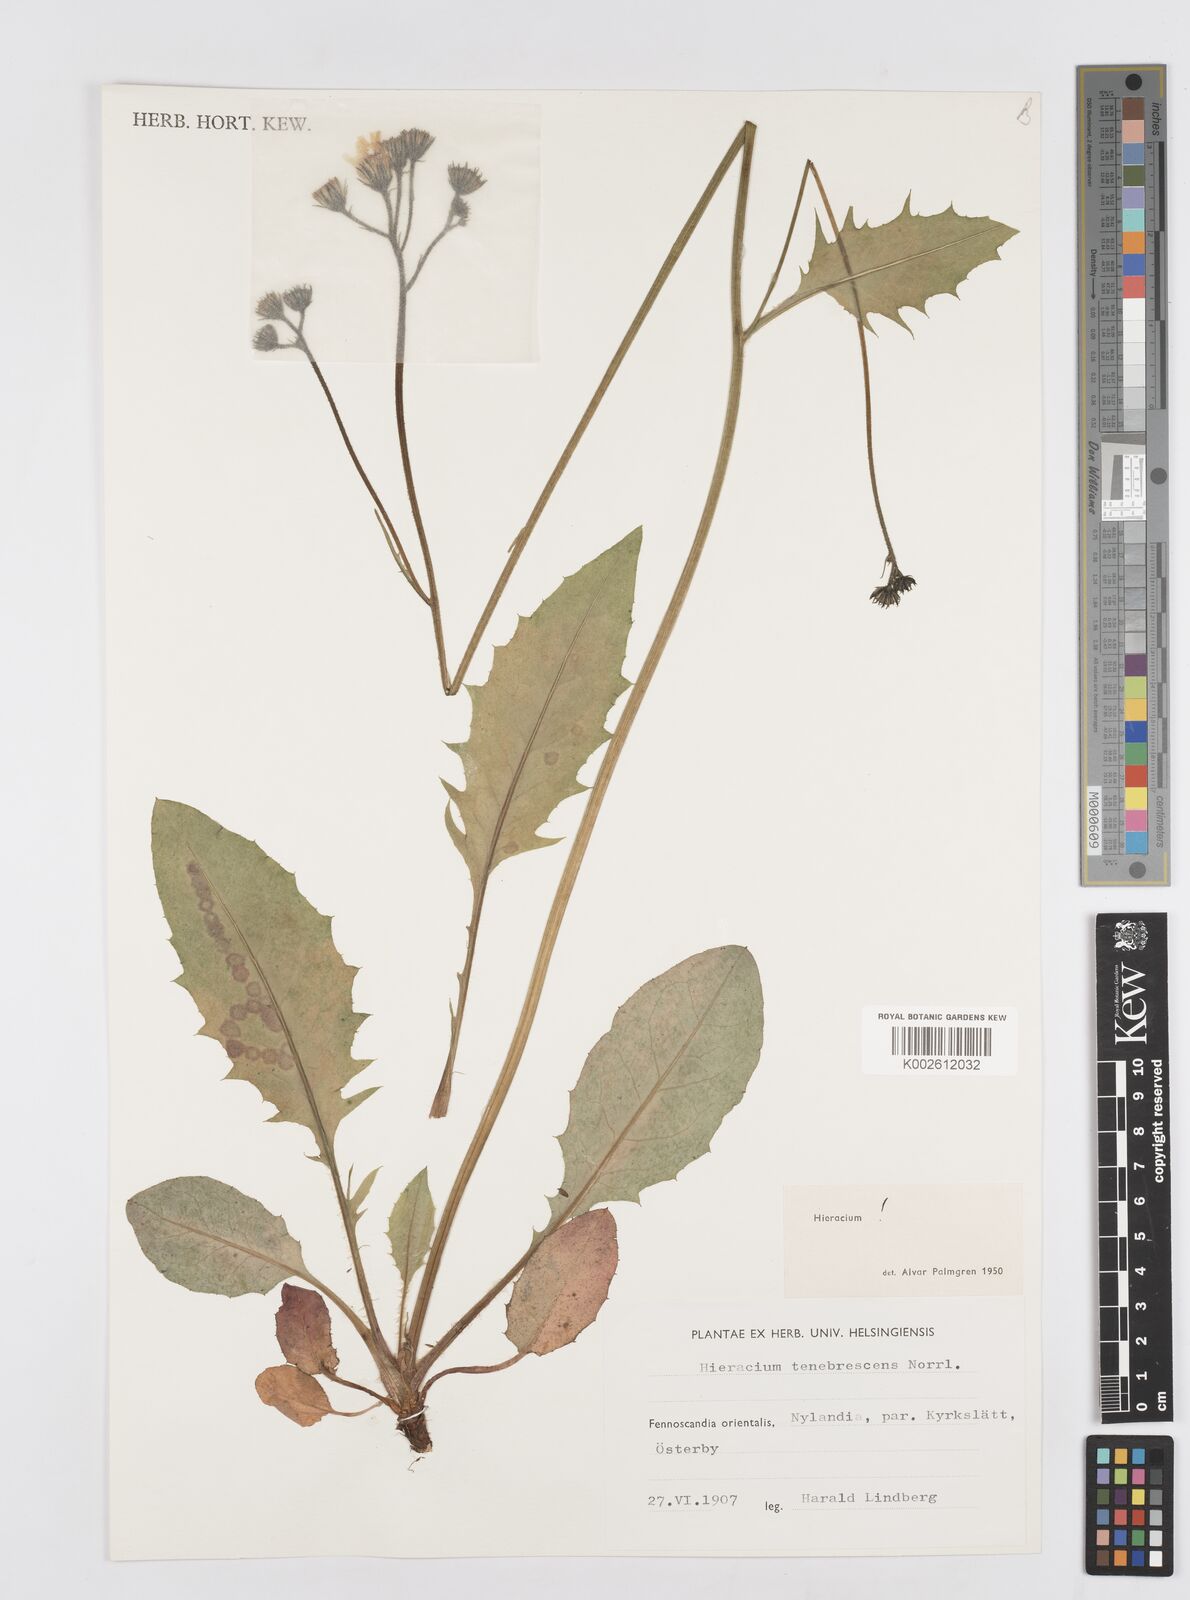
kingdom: Plantae
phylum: Tracheophyta
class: Magnoliopsida
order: Asterales
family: Asteraceae
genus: Hieracium
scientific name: Hieracium
